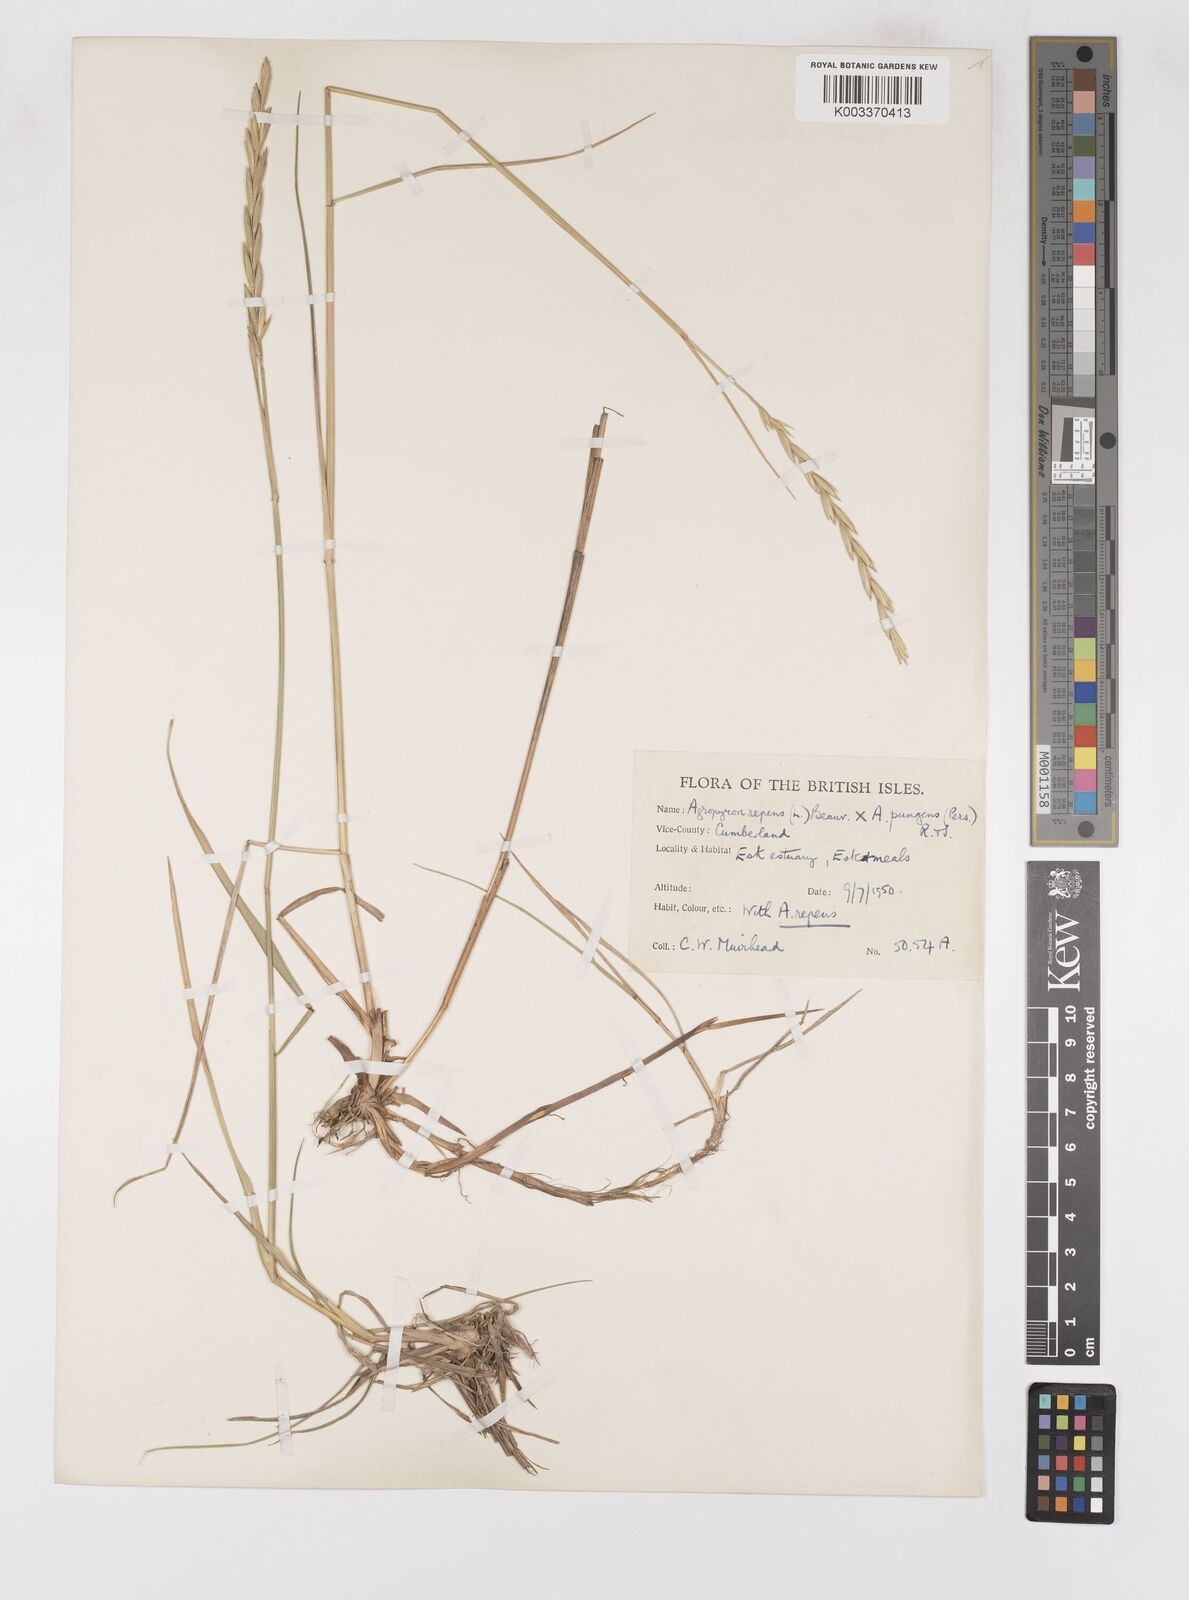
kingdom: Plantae
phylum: Tracheophyta
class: Liliopsida
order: Poales
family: Poaceae
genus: Elymus
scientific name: Elymus oliveri
